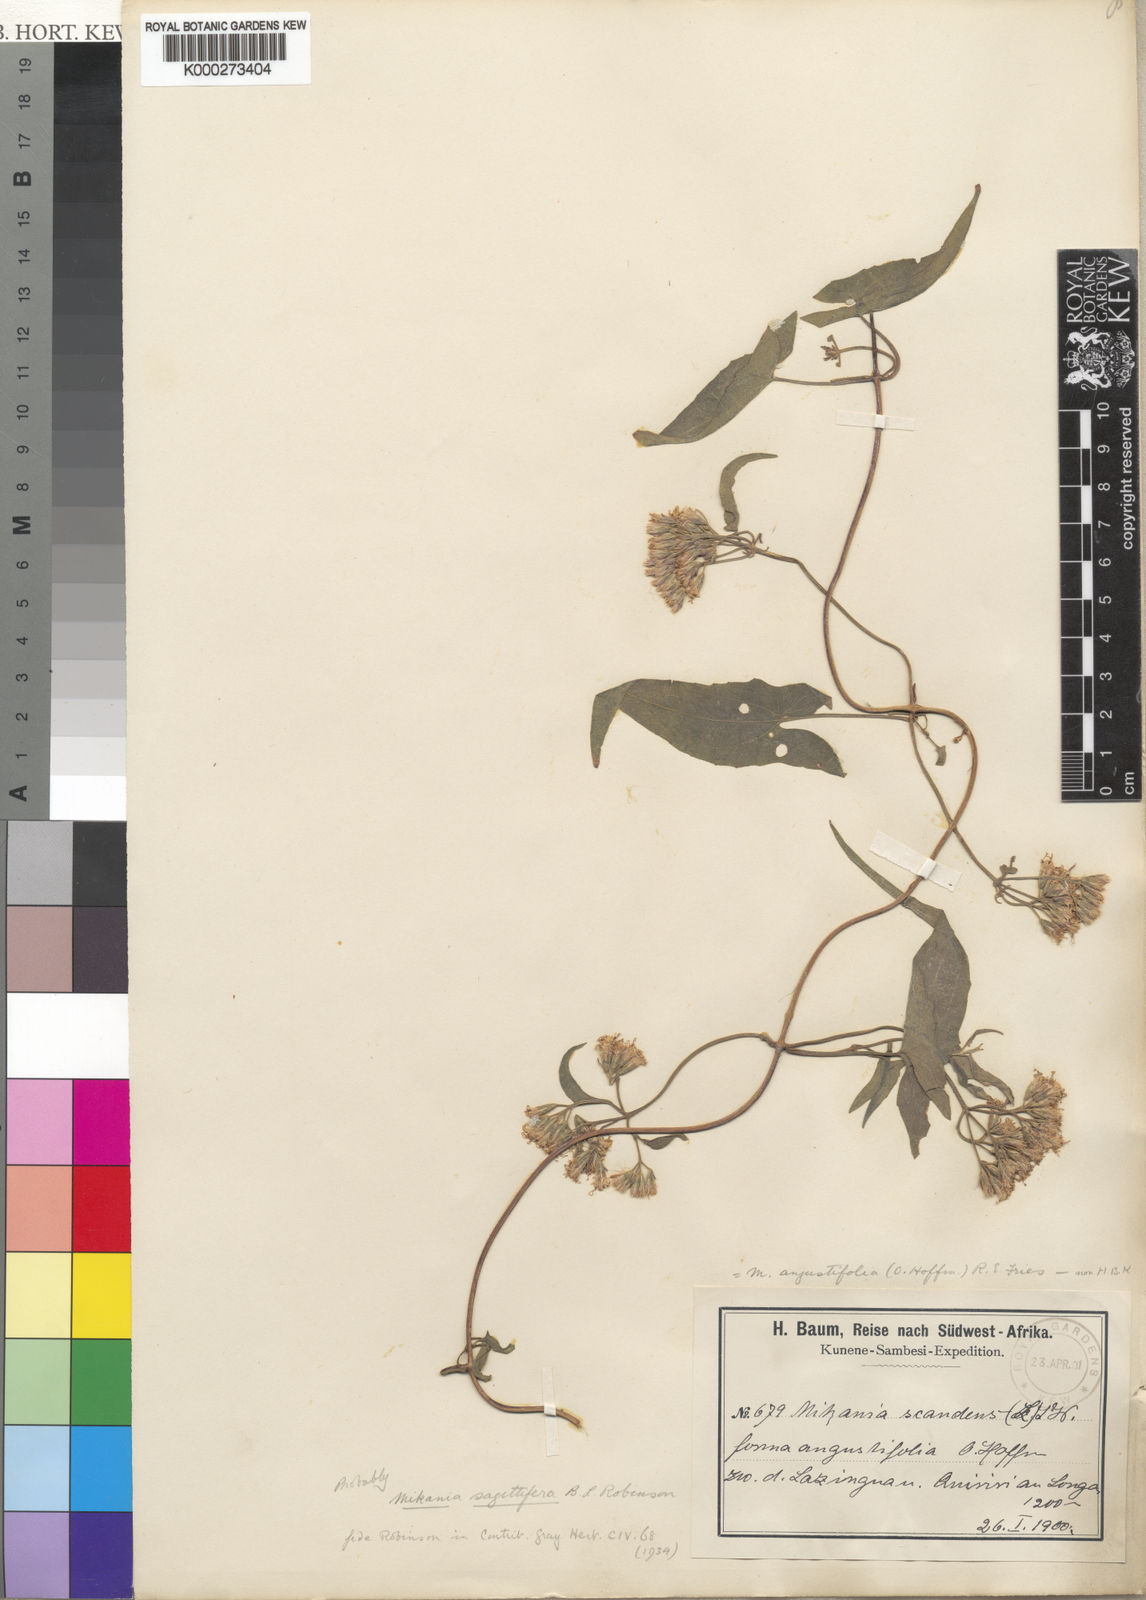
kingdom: Plantae
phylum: Tracheophyta
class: Magnoliopsida
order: Asterales
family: Asteraceae
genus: Mikania
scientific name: Mikania sagittifera
